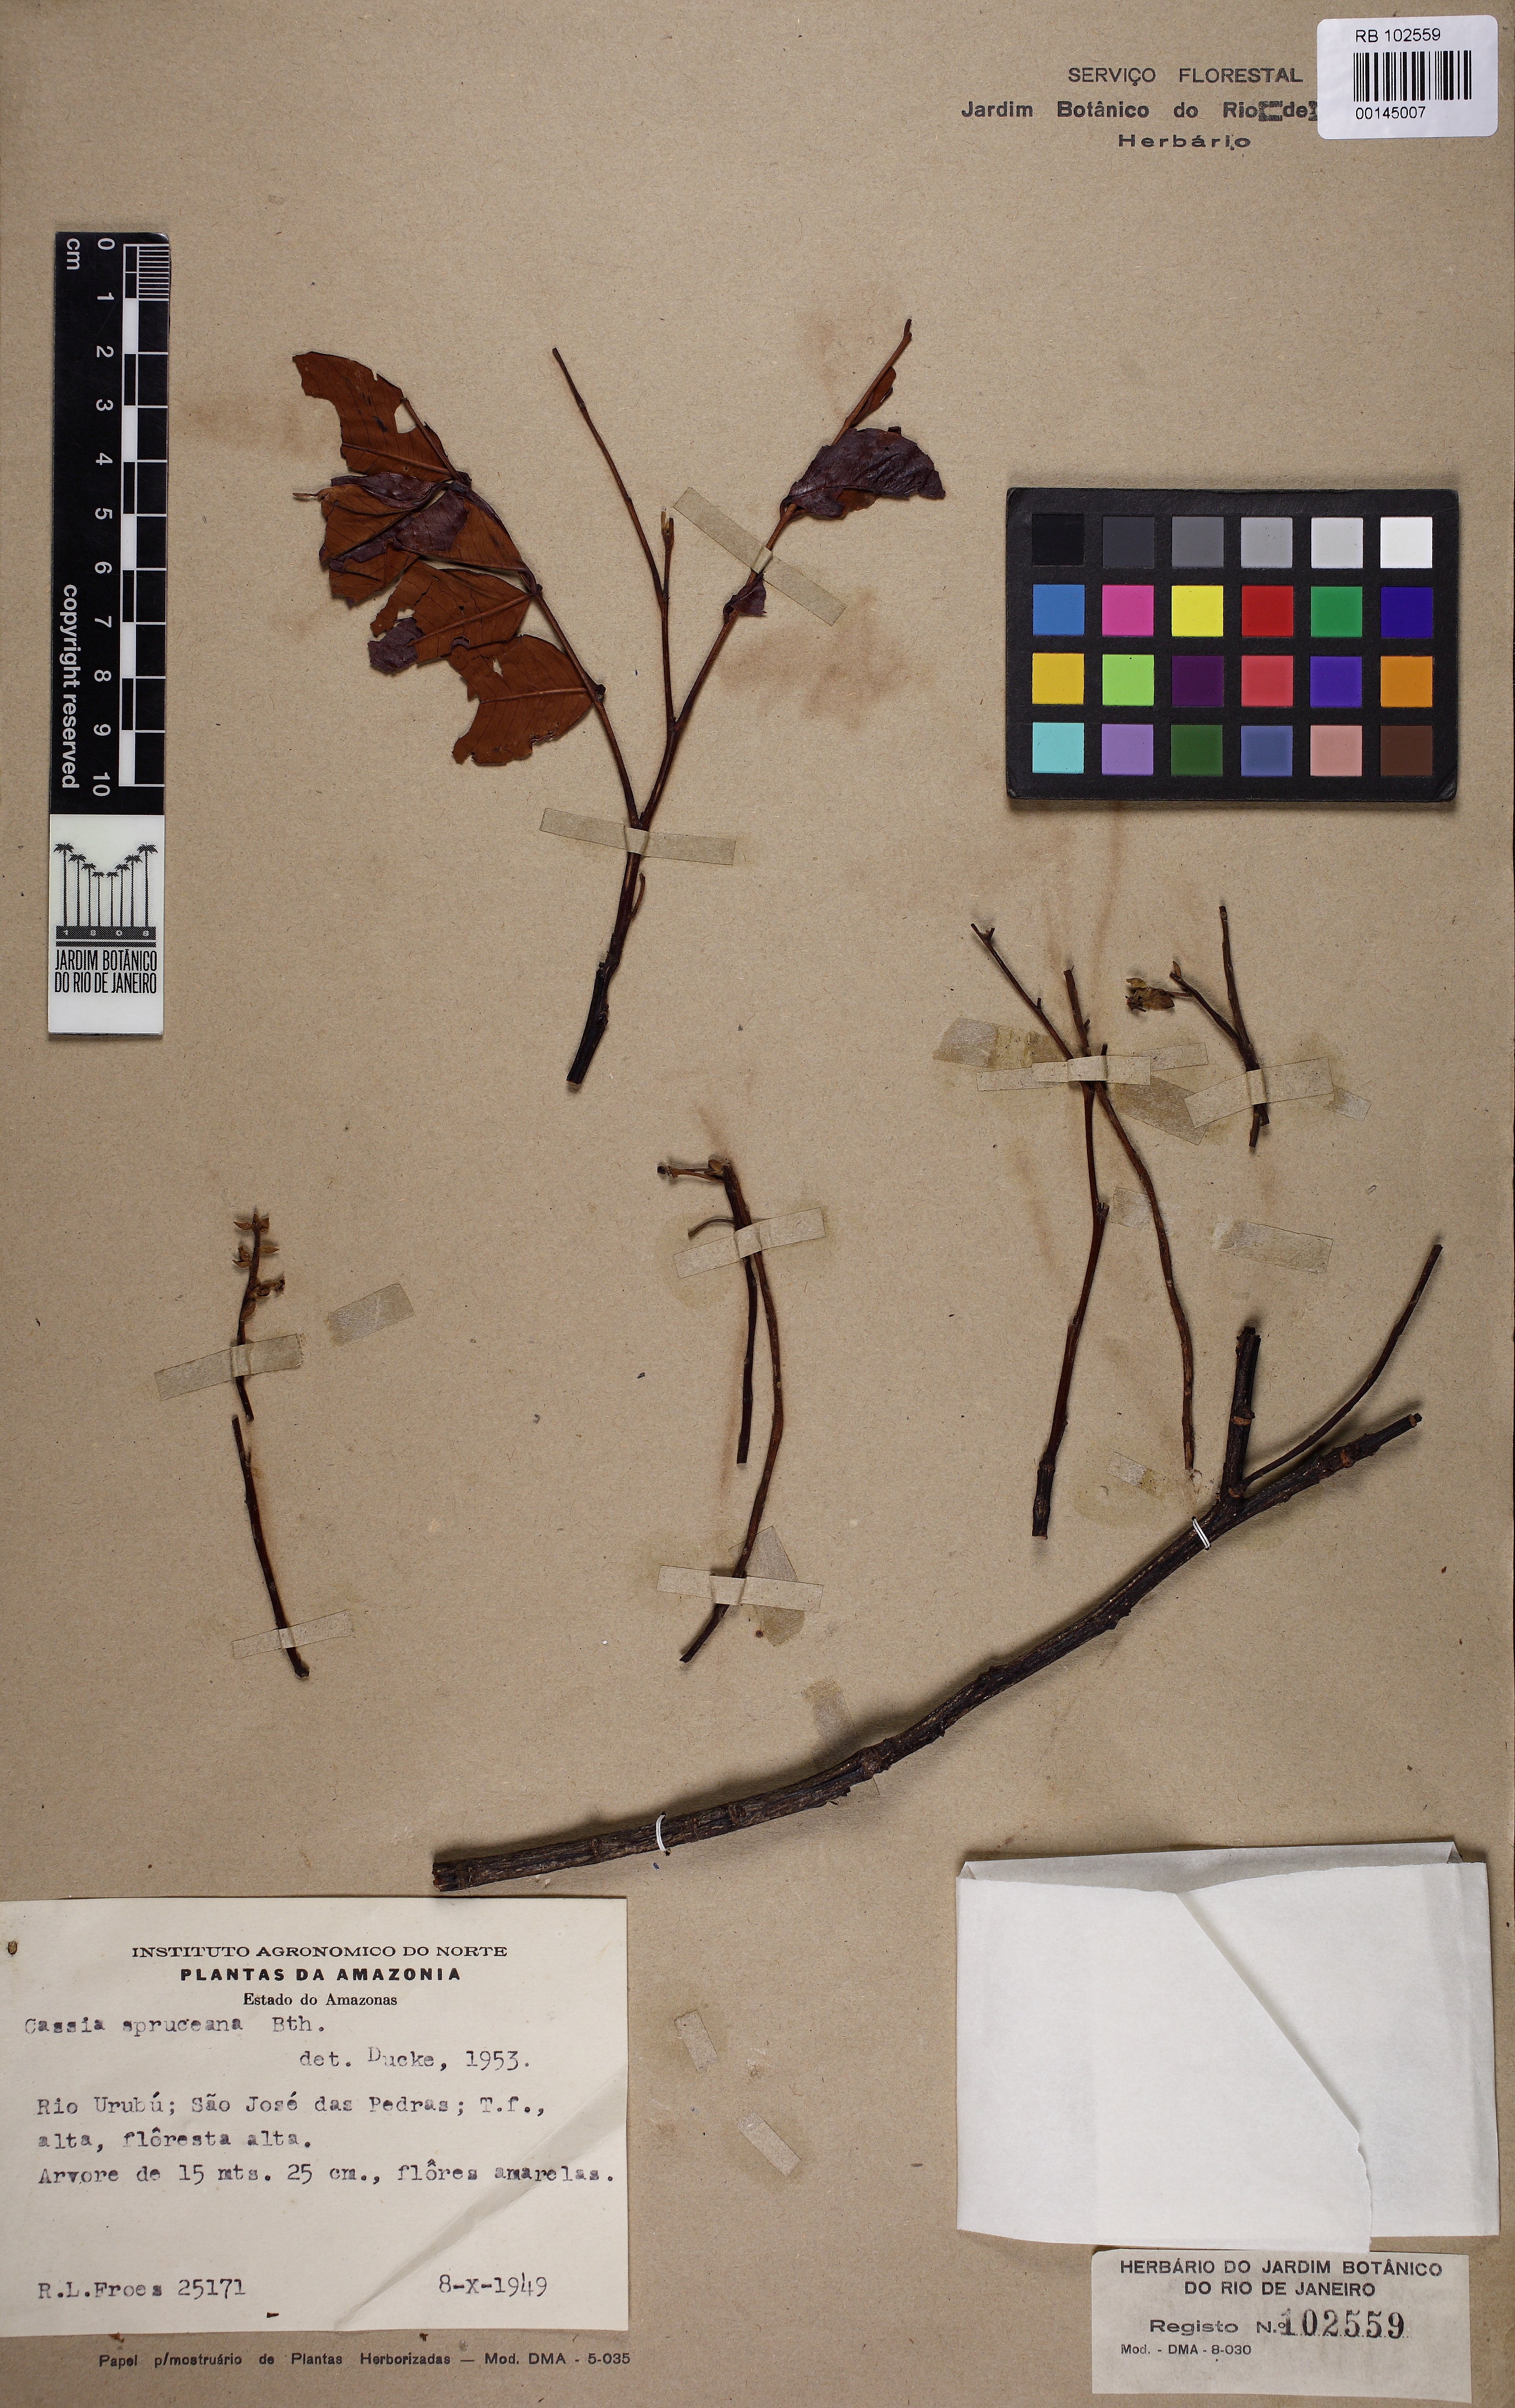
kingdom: Plantae
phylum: Tracheophyta
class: Magnoliopsida
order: Fabales
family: Fabaceae
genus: Cassia
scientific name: Cassia spruceana
